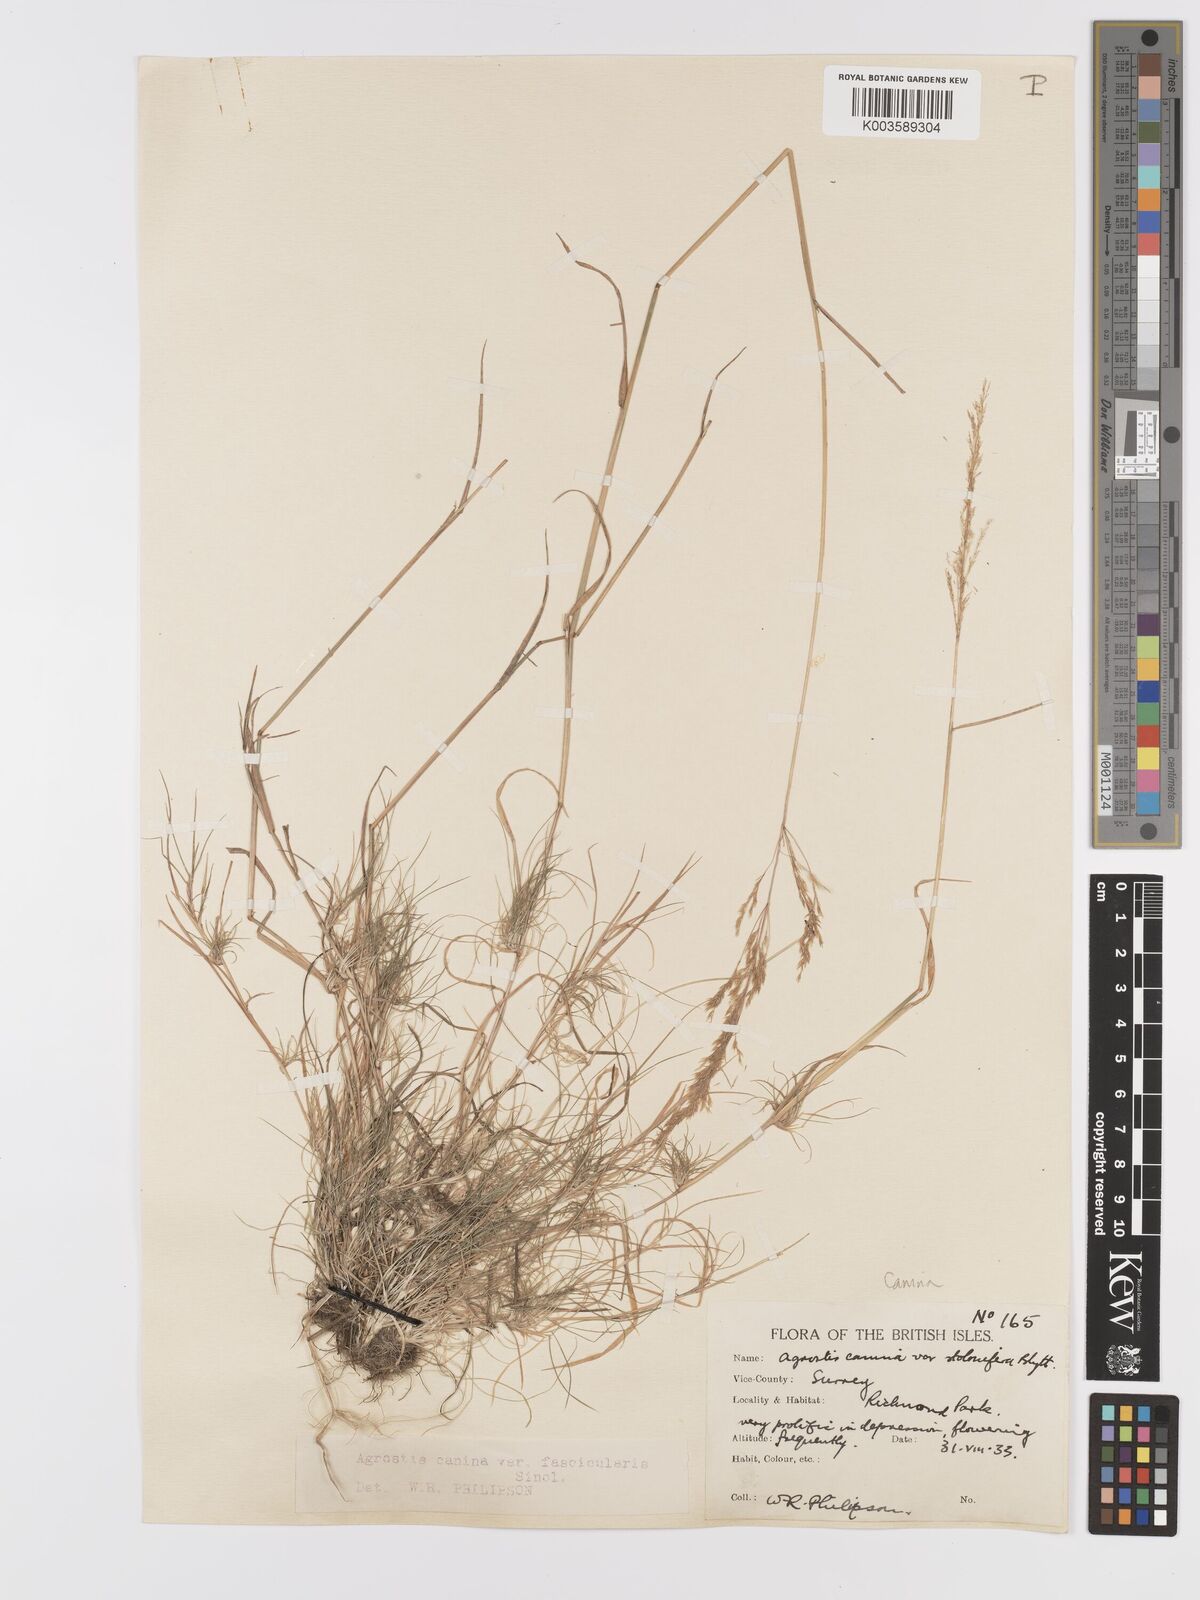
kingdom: Plantae
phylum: Tracheophyta
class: Liliopsida
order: Poales
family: Poaceae
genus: Agrostis
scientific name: Agrostis canina
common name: Velvet bent
